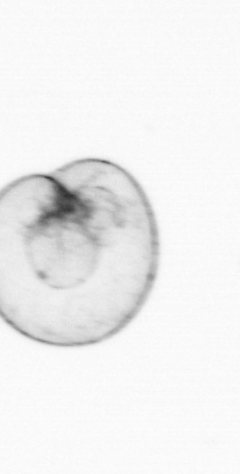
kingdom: Chromista
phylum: Myzozoa
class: Dinophyceae
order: Noctilucales
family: Noctilucaceae
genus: Noctiluca
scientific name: Noctiluca scintillans
